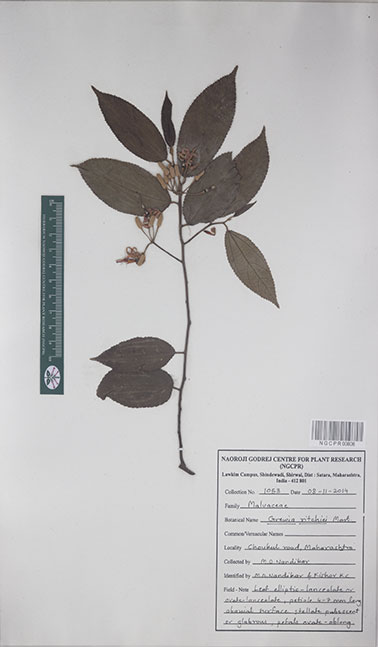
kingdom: Plantae
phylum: Tracheophyta
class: Magnoliopsida
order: Malvales
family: Malvaceae
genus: Grewia
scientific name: Grewia ritchiei
